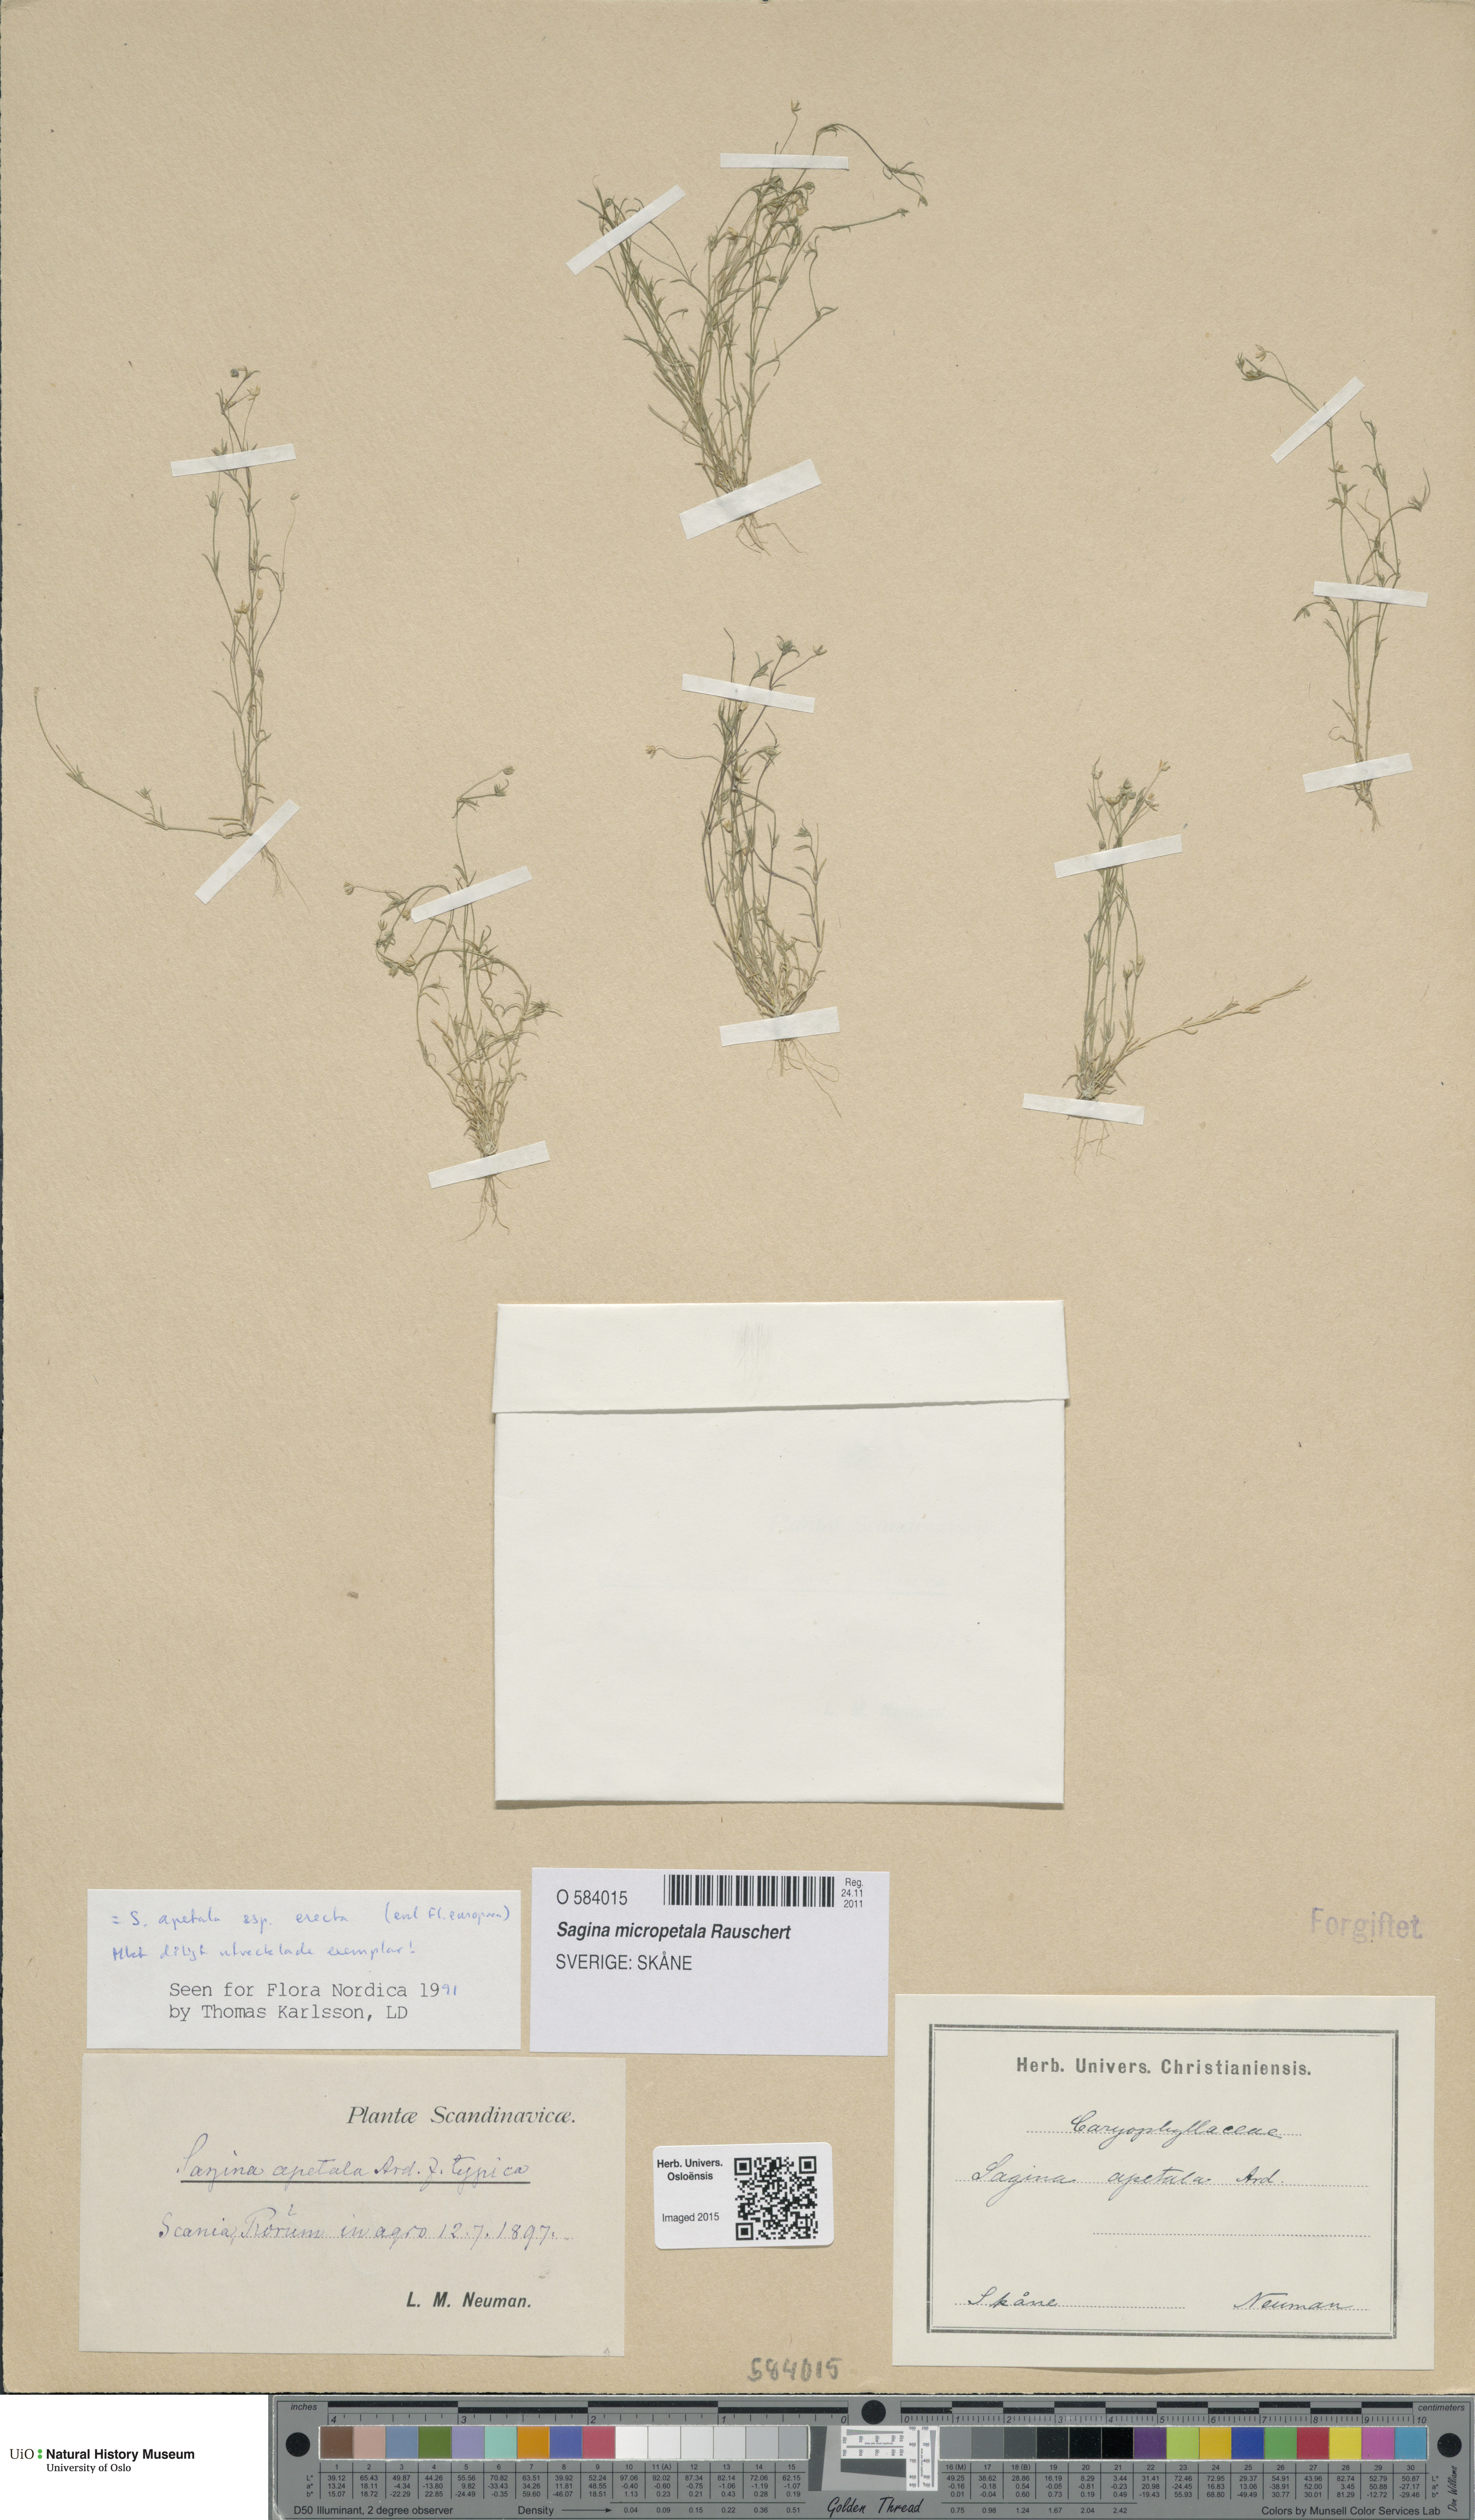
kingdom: Plantae
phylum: Tracheophyta
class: Magnoliopsida
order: Caryophyllales
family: Caryophyllaceae
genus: Sagina
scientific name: Sagina micropetala
